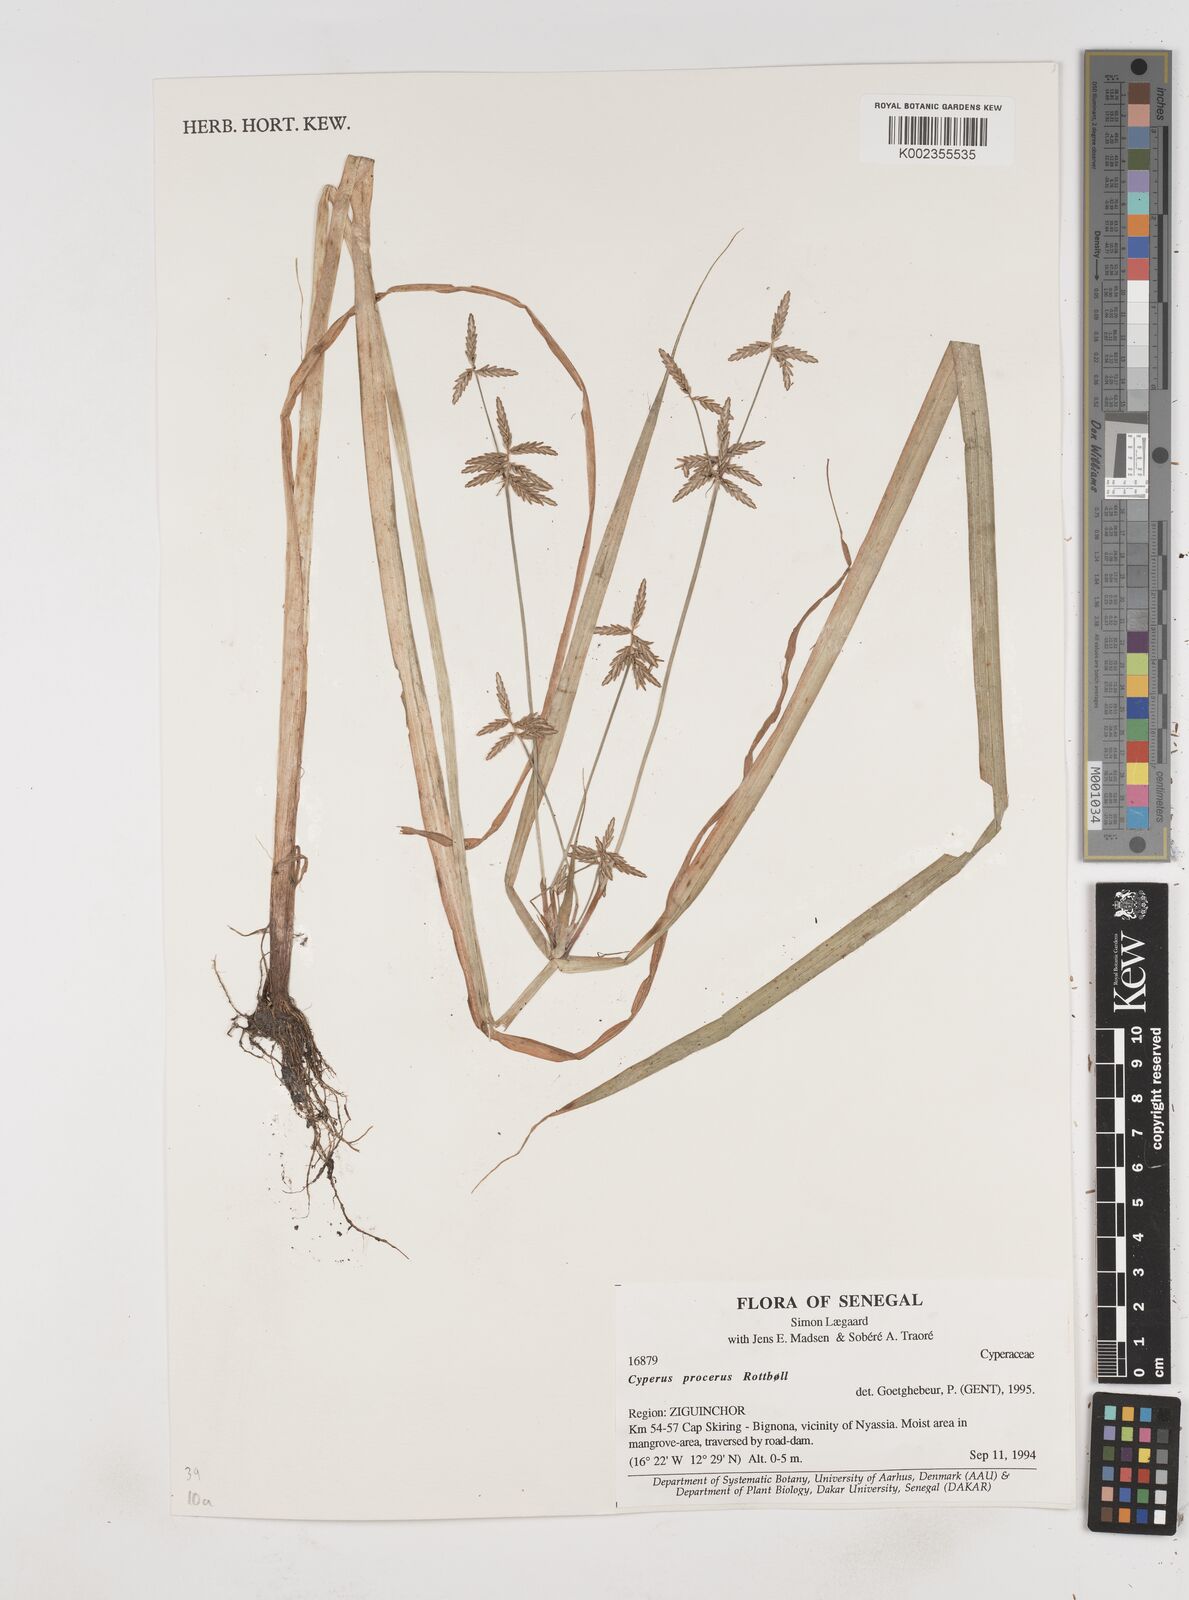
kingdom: Plantae
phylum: Tracheophyta
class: Liliopsida
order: Poales
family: Cyperaceae
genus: Cyperus
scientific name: Cyperus procerus
